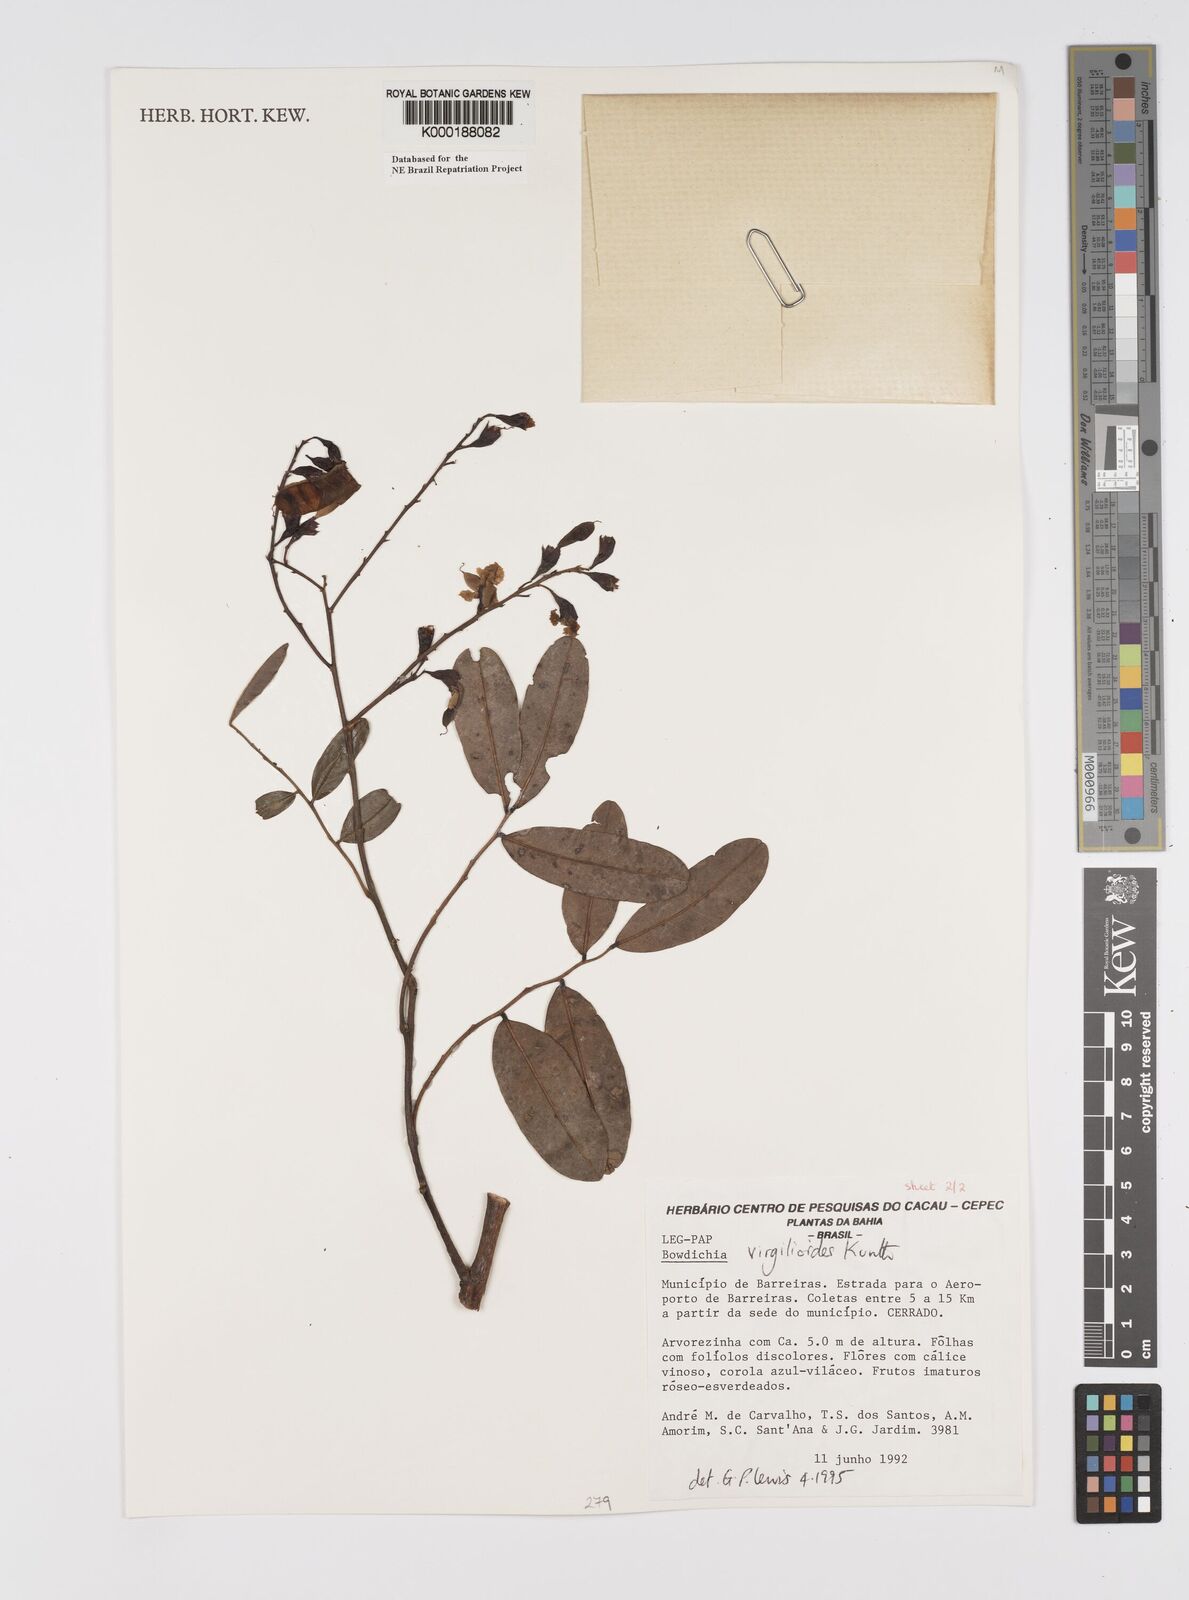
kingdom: Plantae
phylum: Tracheophyta
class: Magnoliopsida
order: Fabales
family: Fabaceae
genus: Bowdichia
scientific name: Bowdichia virgilioides
